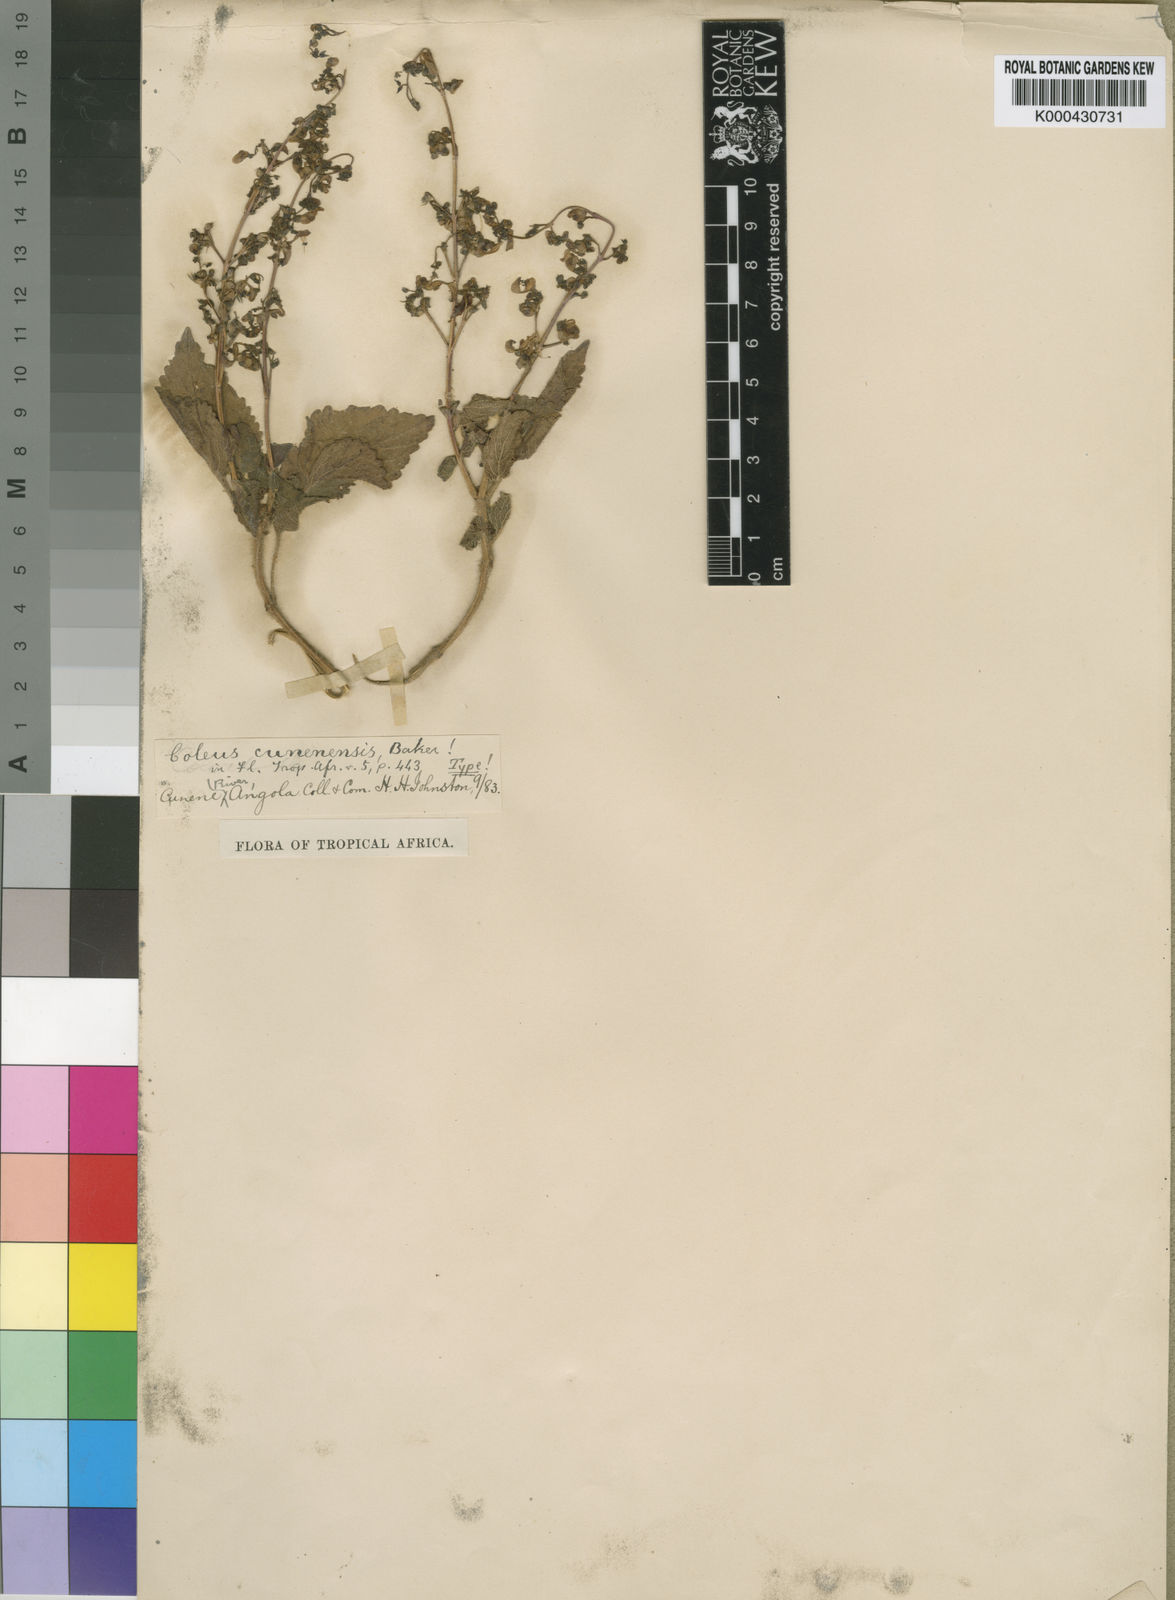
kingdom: Plantae
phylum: Tracheophyta
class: Magnoliopsida
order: Lamiales
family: Lamiaceae
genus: Plectranthus
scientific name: Plectranthus
